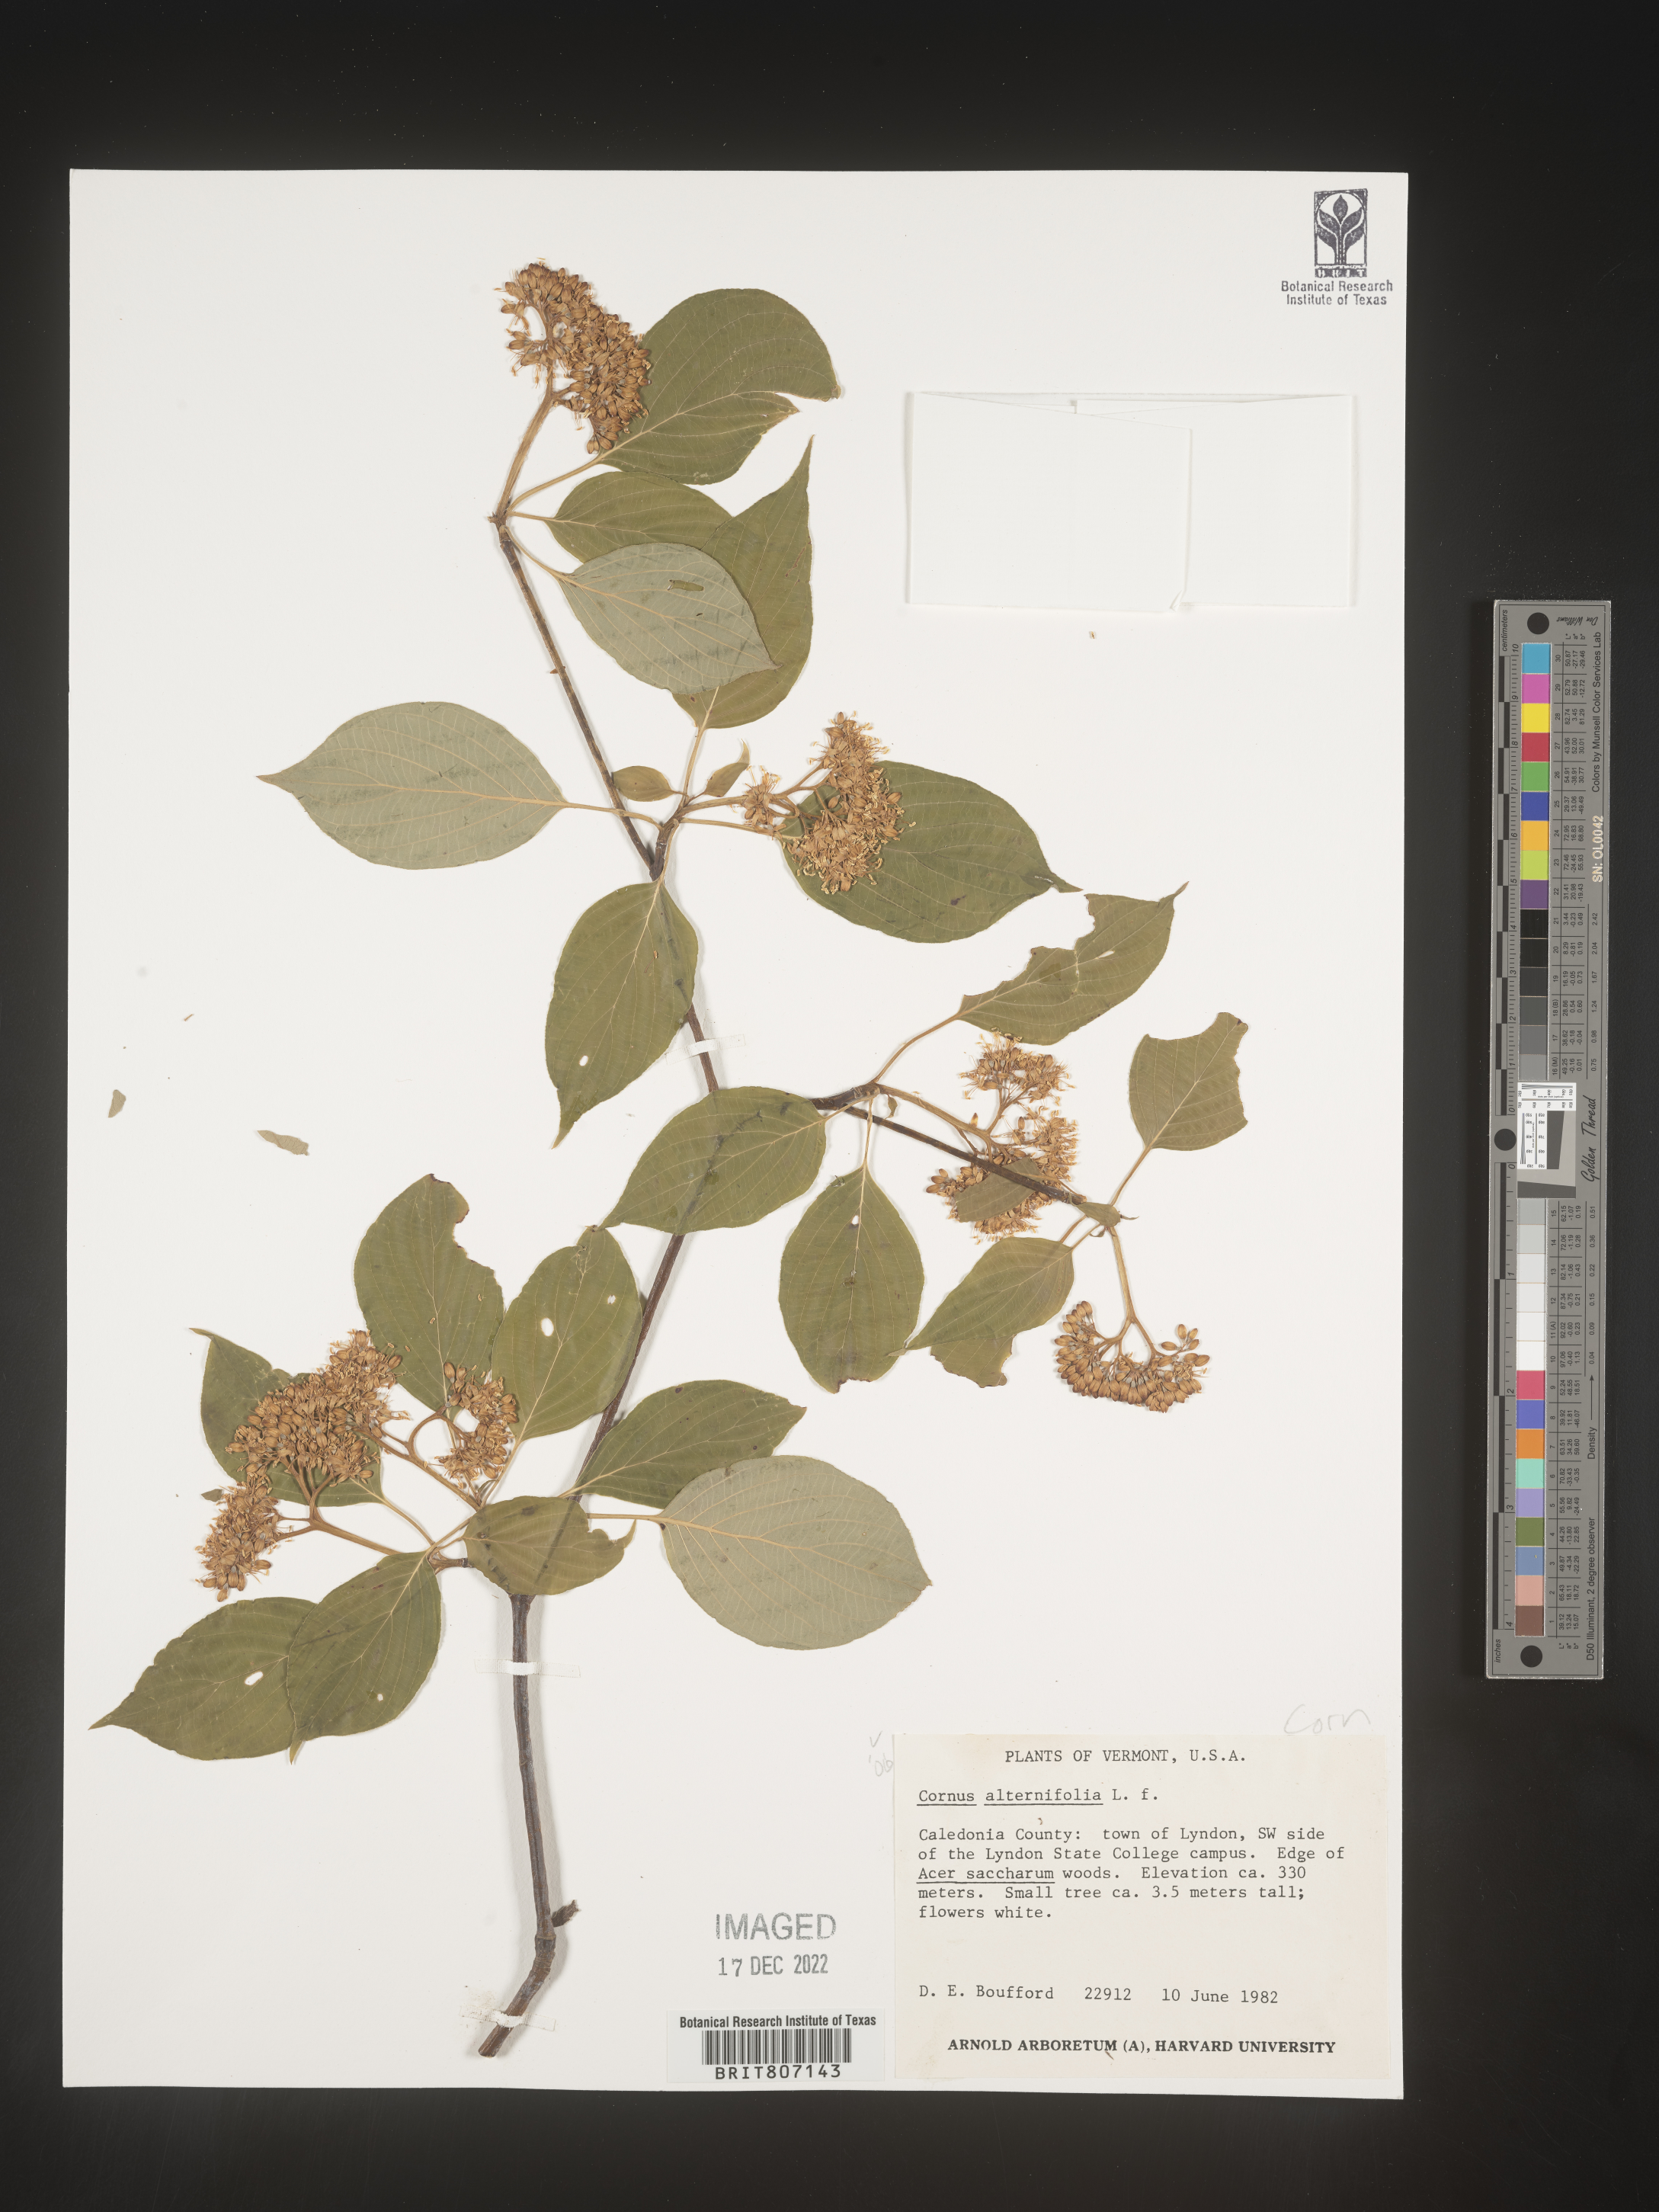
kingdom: Plantae
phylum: Tracheophyta
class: Magnoliopsida
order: Cornales
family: Cornaceae
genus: Cornus
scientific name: Cornus alternifolia
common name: Pagoda dogwood
